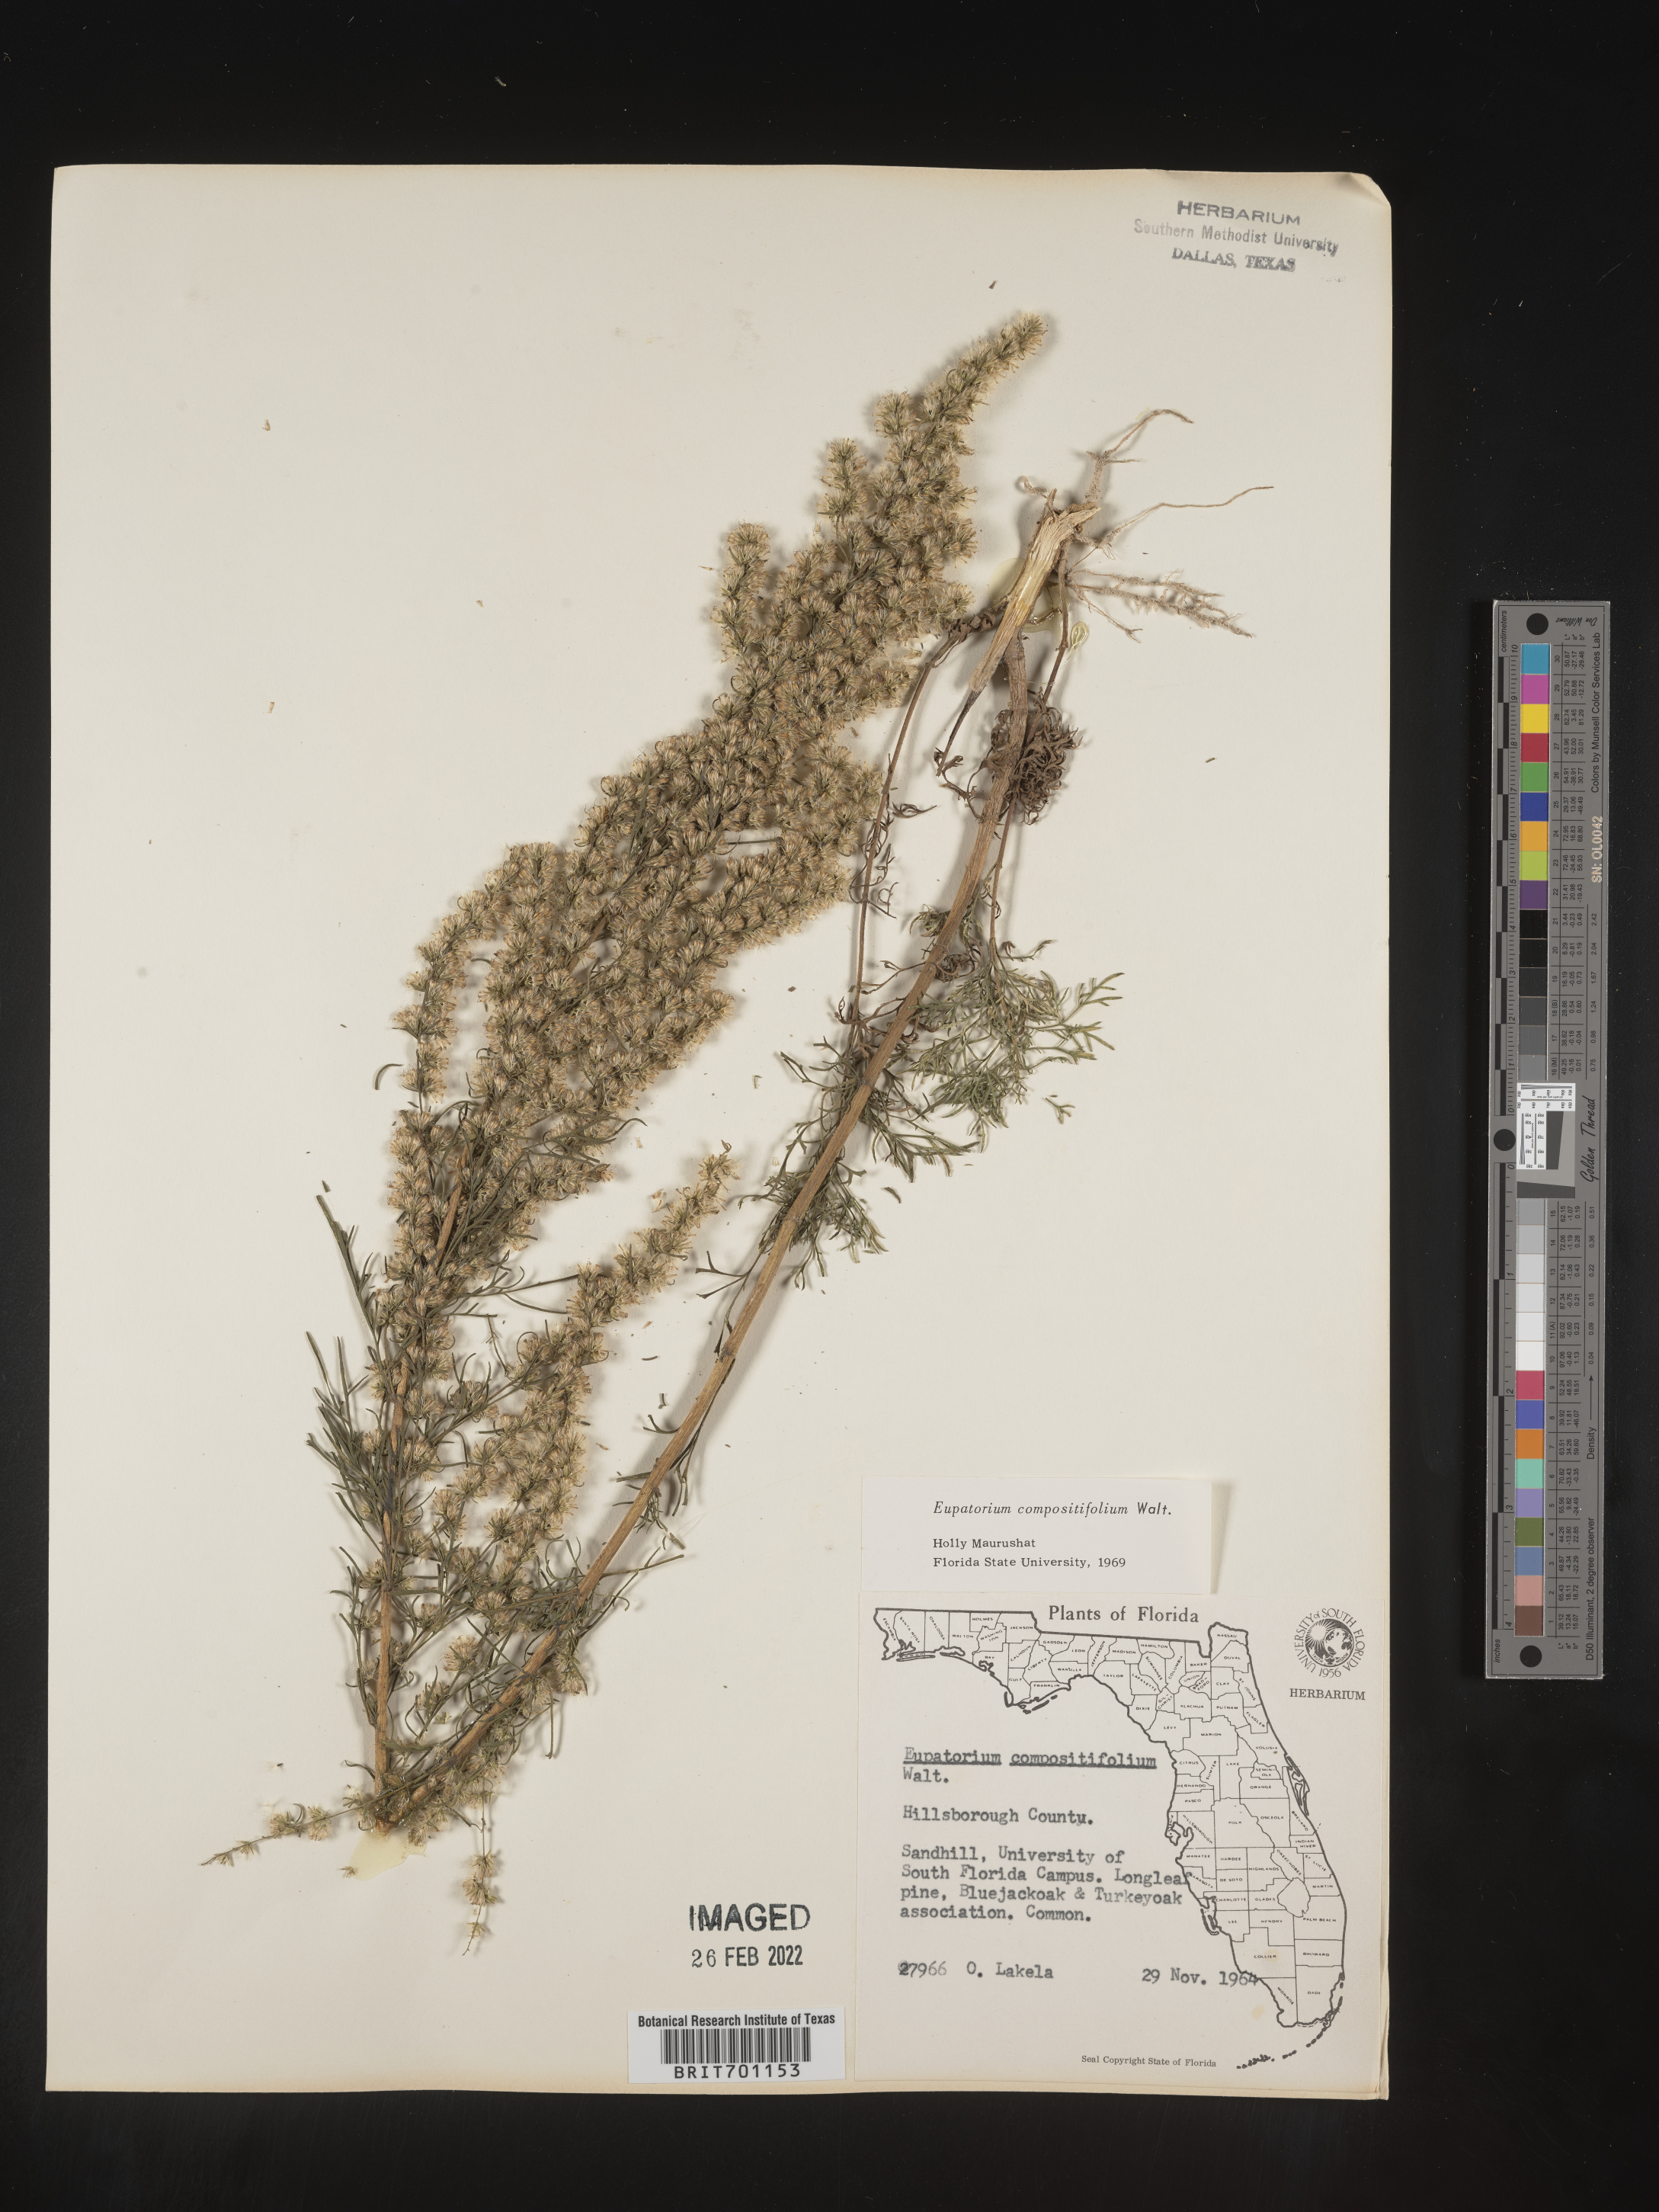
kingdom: Plantae
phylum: Tracheophyta
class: Magnoliopsida
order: Asterales
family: Asteraceae
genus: Eupatorium
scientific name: Eupatorium compositifolium
